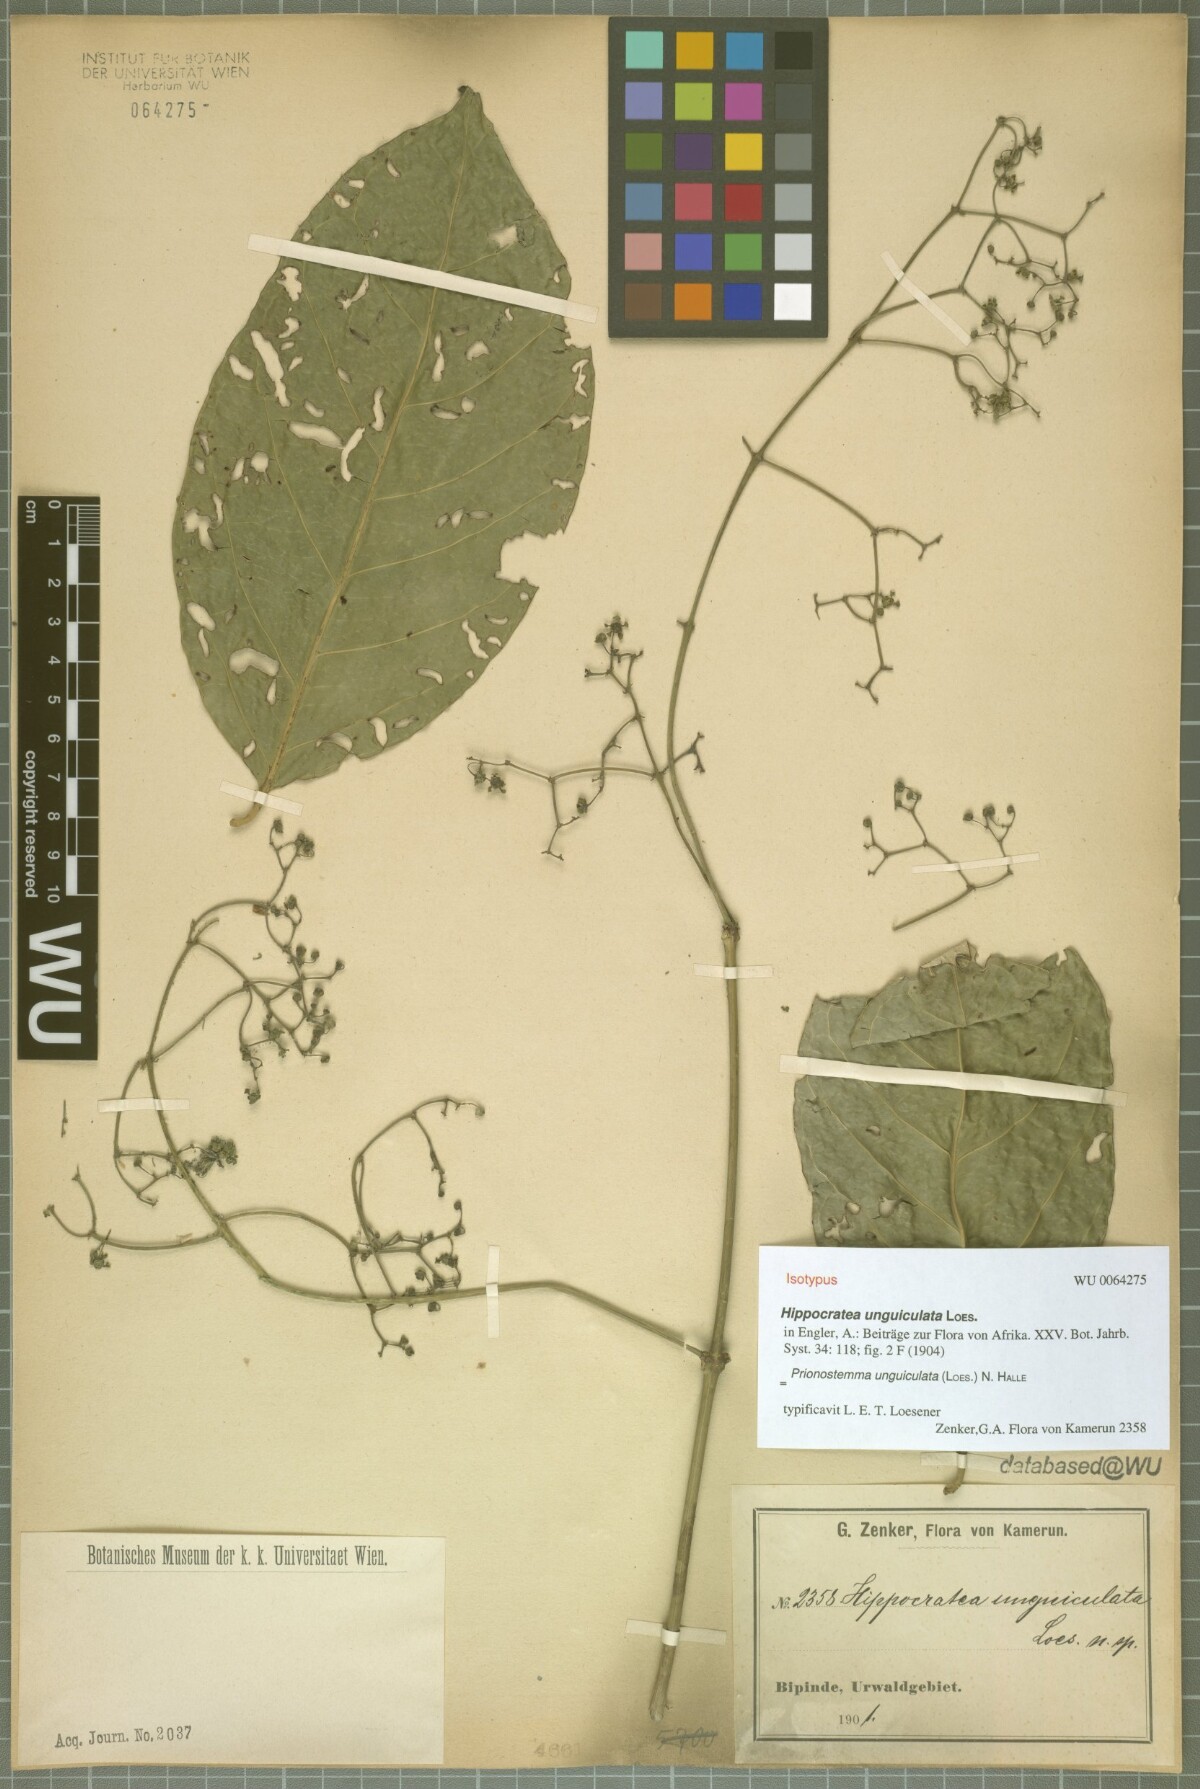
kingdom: Plantae
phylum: Tracheophyta
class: Magnoliopsida
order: Celastrales
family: Celastraceae
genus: Pristimera
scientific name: Pristimera unguiculata
